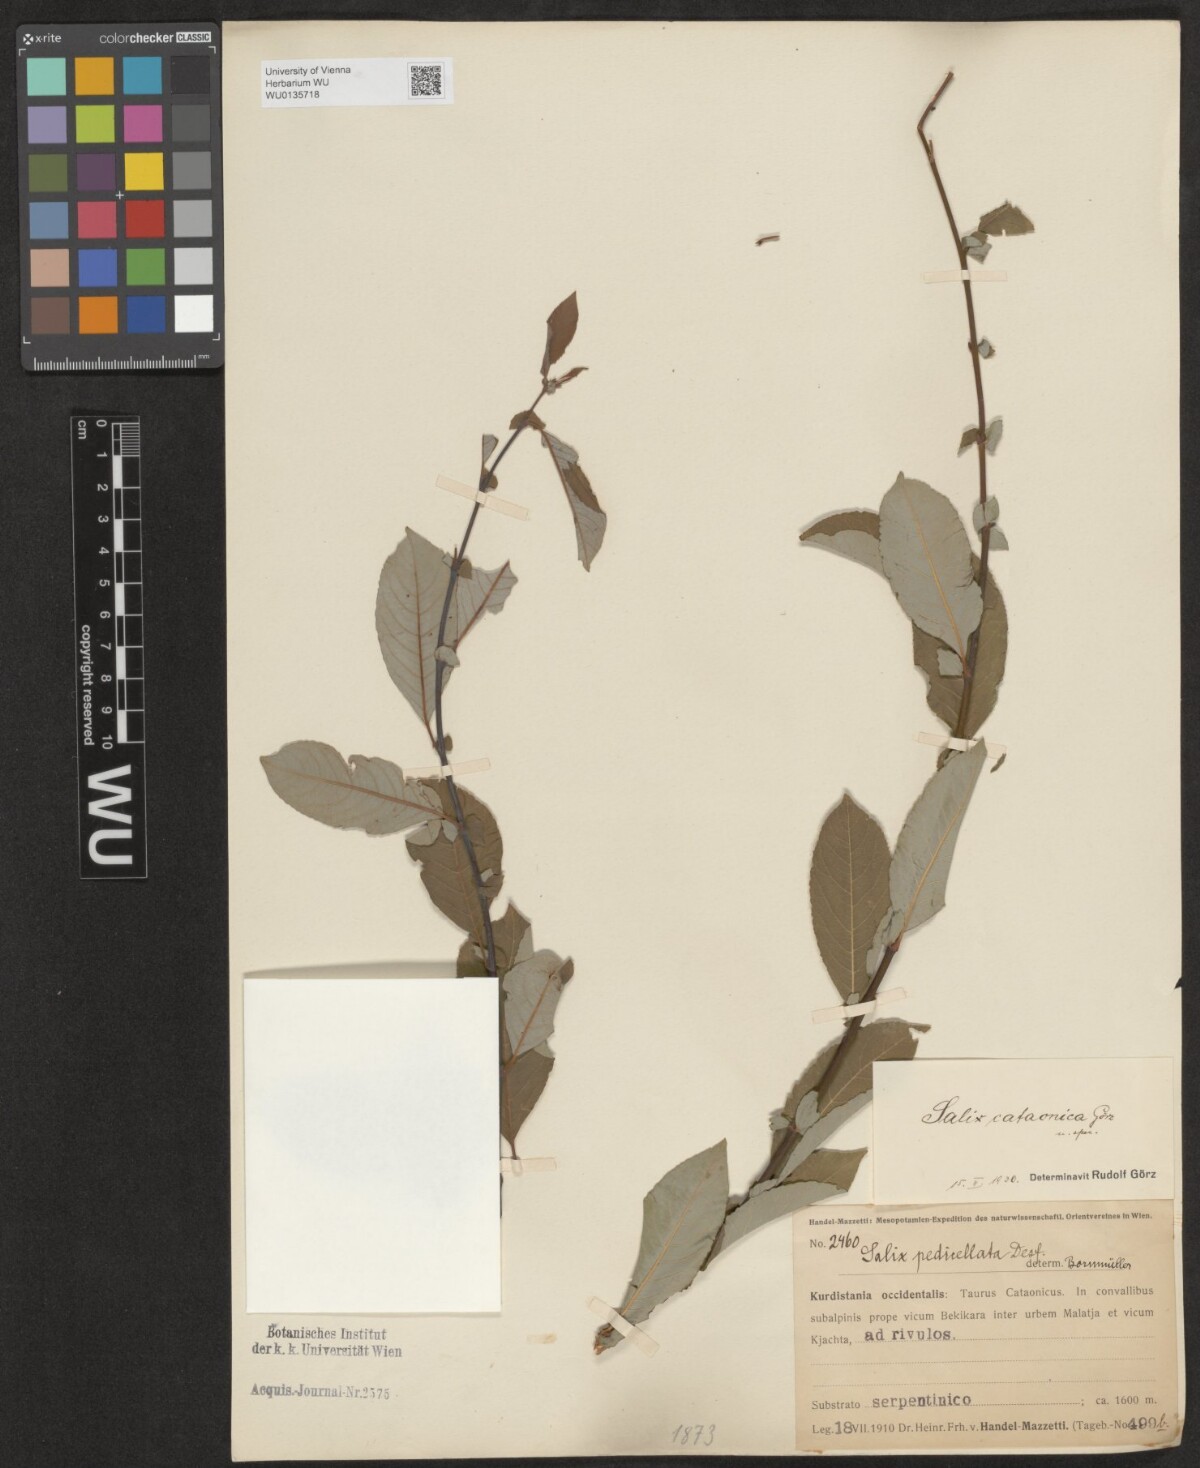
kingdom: Plantae
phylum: Tracheophyta
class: Magnoliopsida
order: Malpighiales
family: Salicaceae
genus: Salix
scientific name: Salix cataonica
